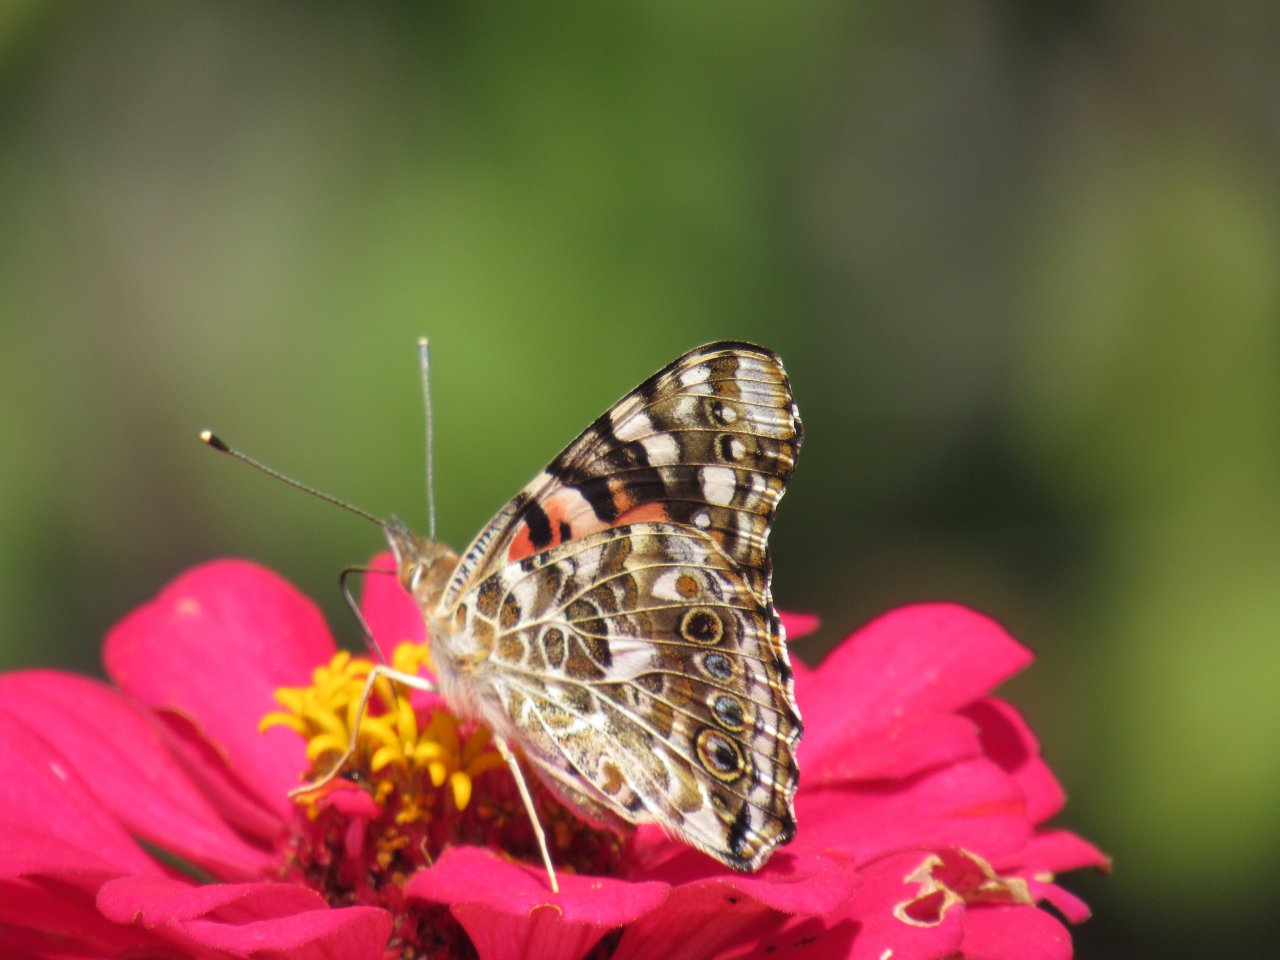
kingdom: Animalia
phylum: Arthropoda
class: Insecta
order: Lepidoptera
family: Nymphalidae
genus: Vanessa
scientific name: Vanessa cardui
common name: Painted Lady
